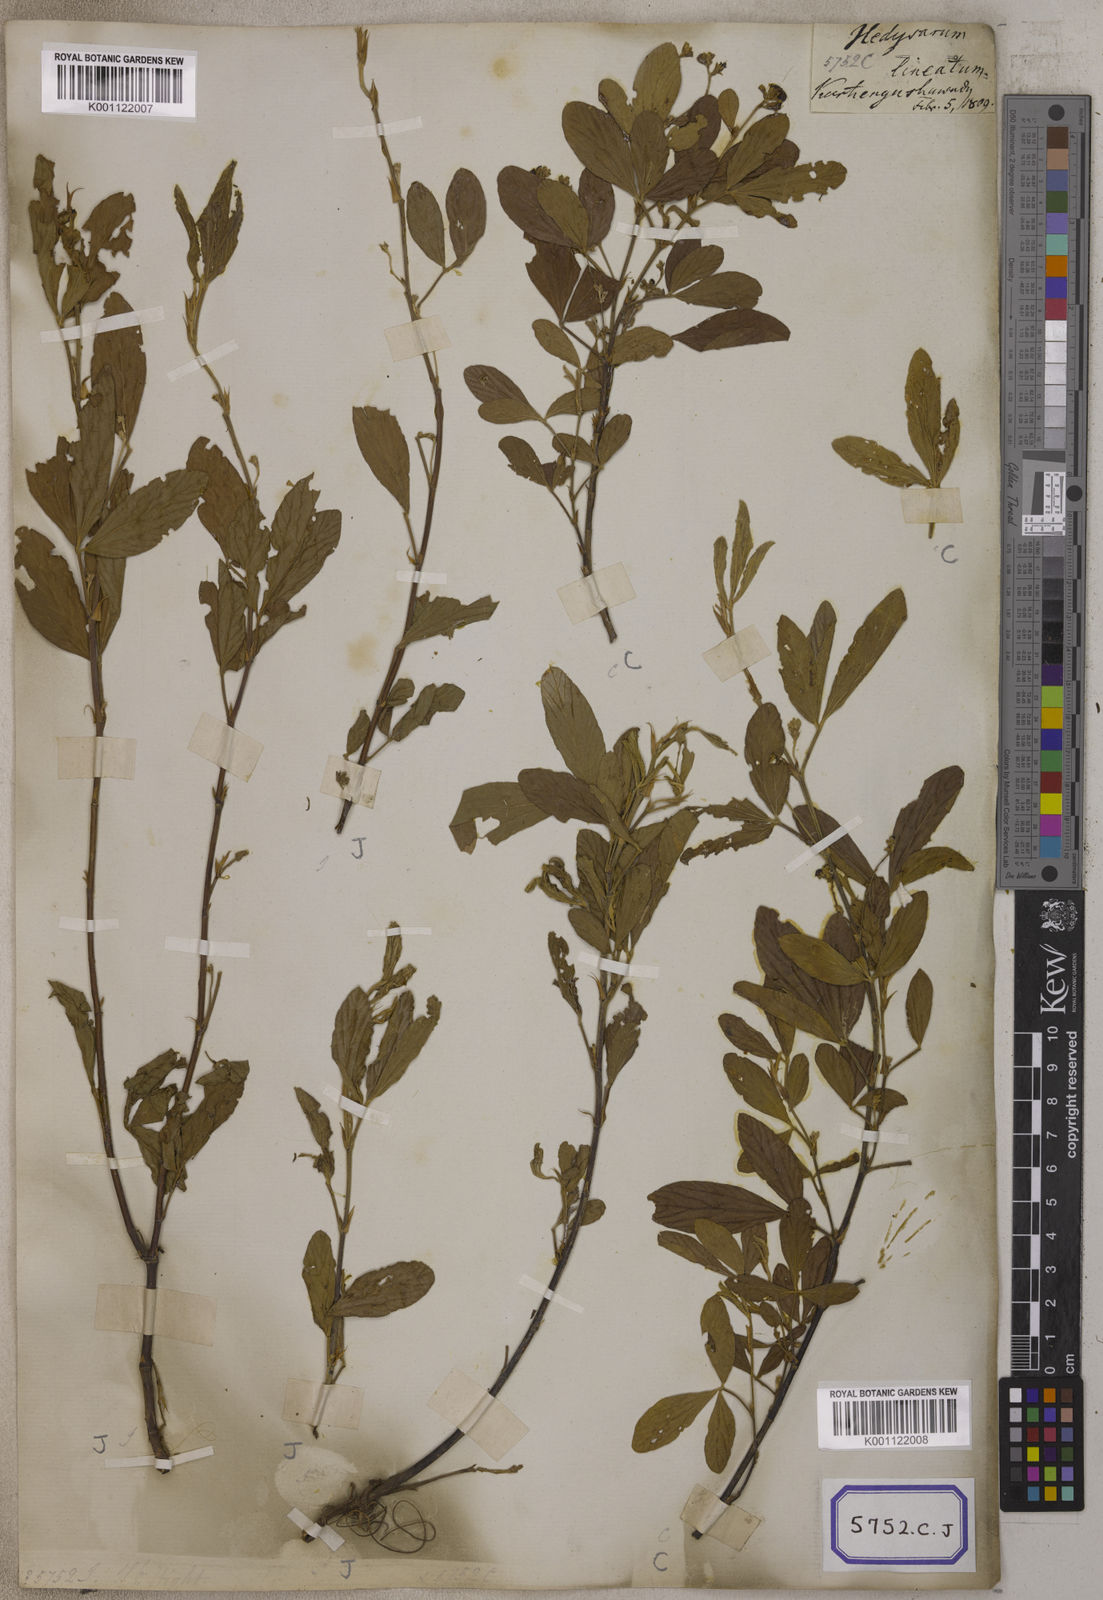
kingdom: Plantae
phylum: Tracheophyta
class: Magnoliopsida
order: Fabales
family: Fabaceae
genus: Flemingia
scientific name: Flemingia lineata
